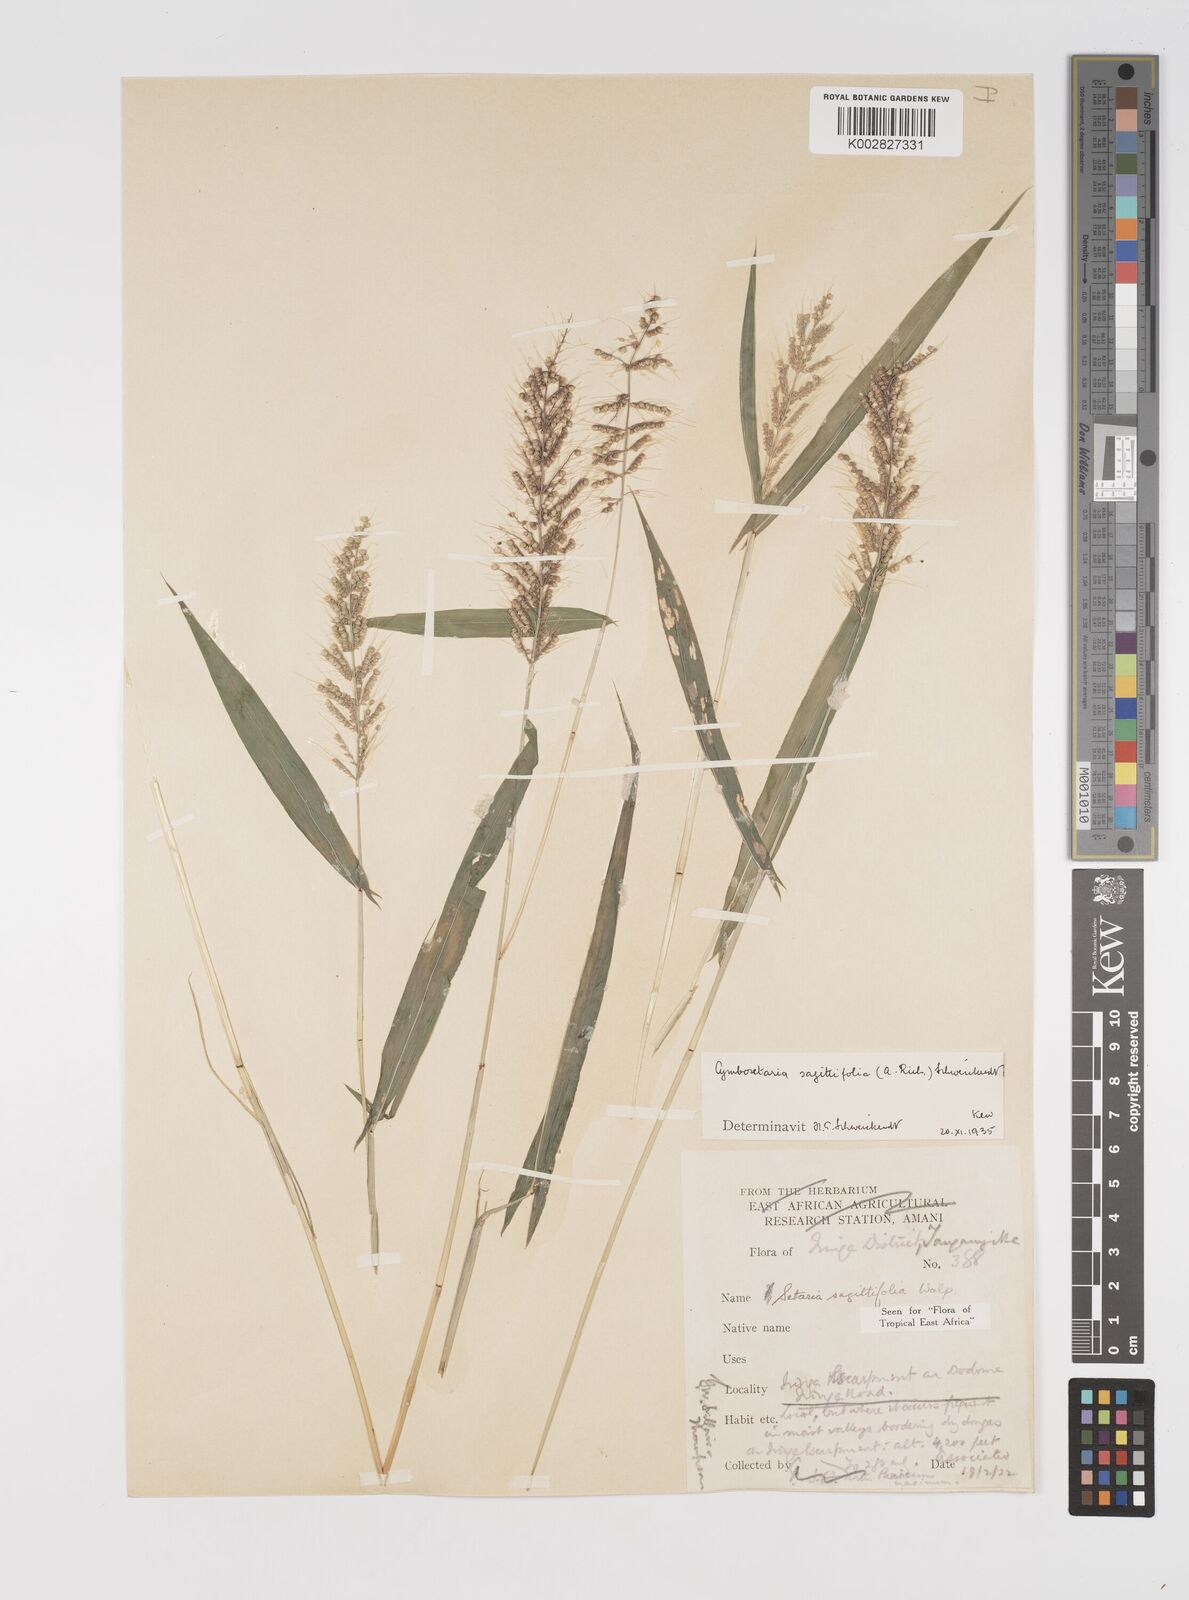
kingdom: Plantae
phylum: Tracheophyta
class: Liliopsida
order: Poales
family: Poaceae
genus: Setaria
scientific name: Setaria sagittifolia
